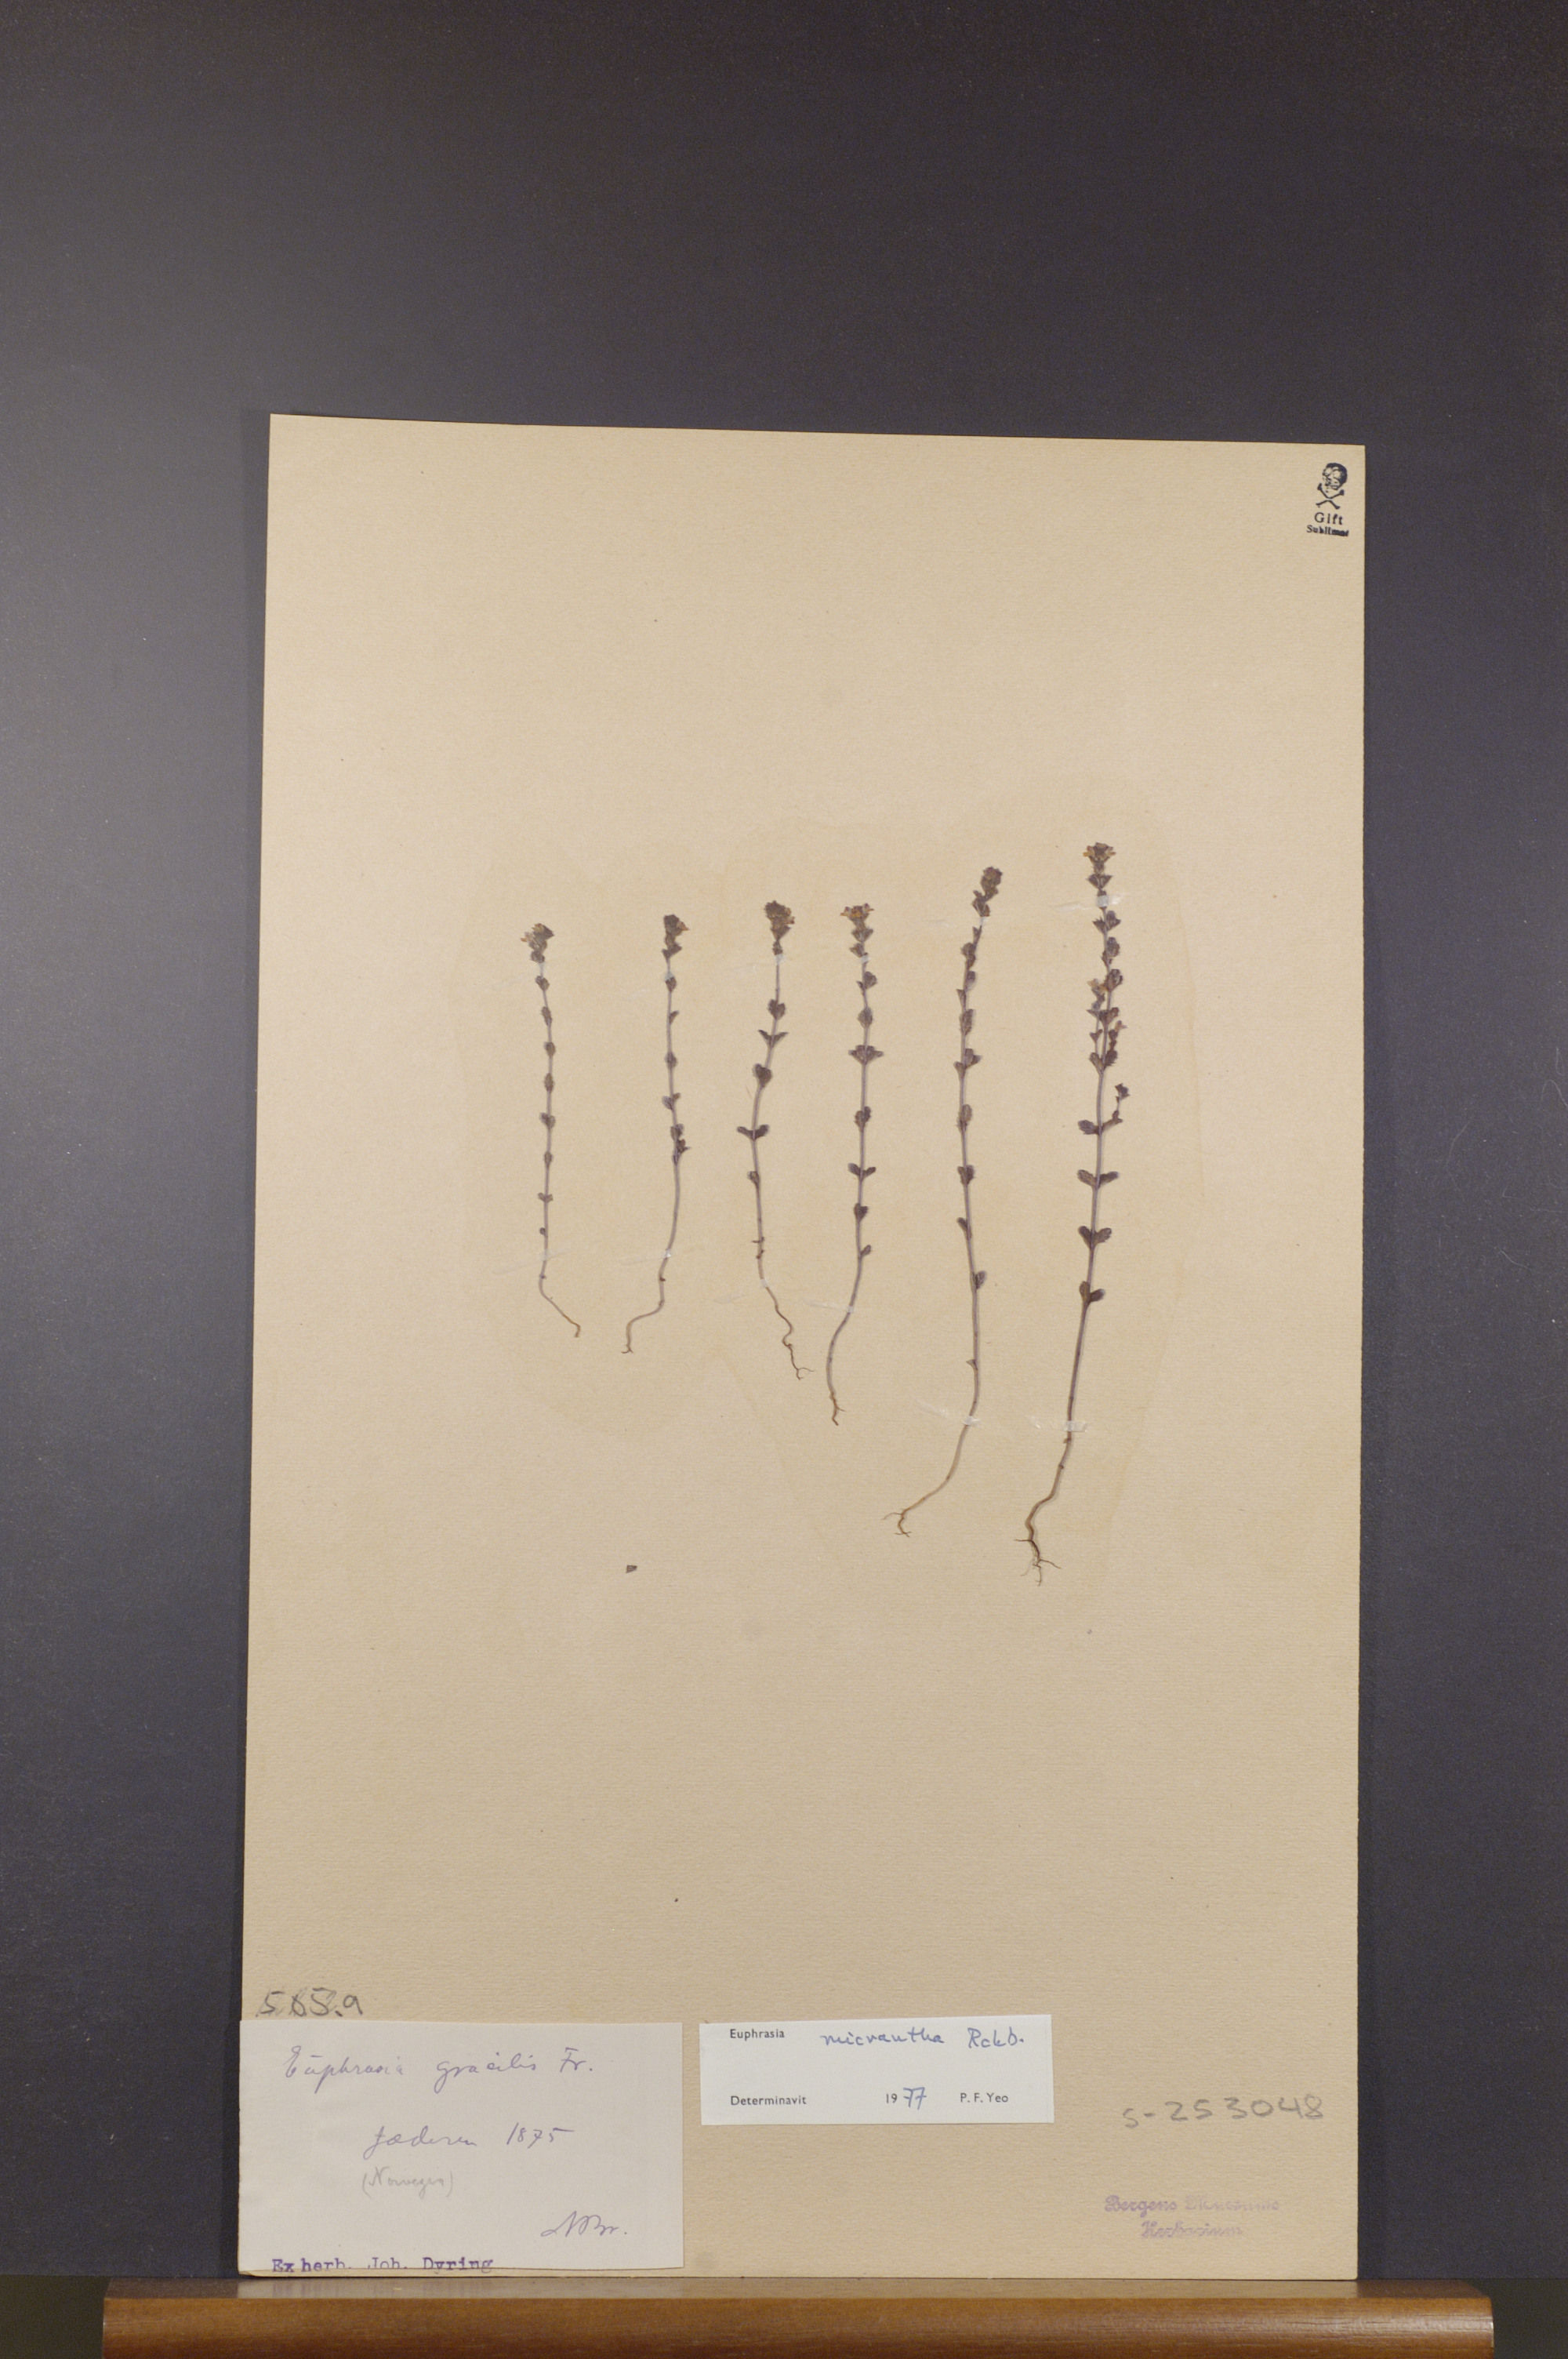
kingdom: Plantae
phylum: Tracheophyta
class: Magnoliopsida
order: Lamiales
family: Orobanchaceae
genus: Euphrasia
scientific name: Euphrasia micrantha
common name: Northern eyebright
